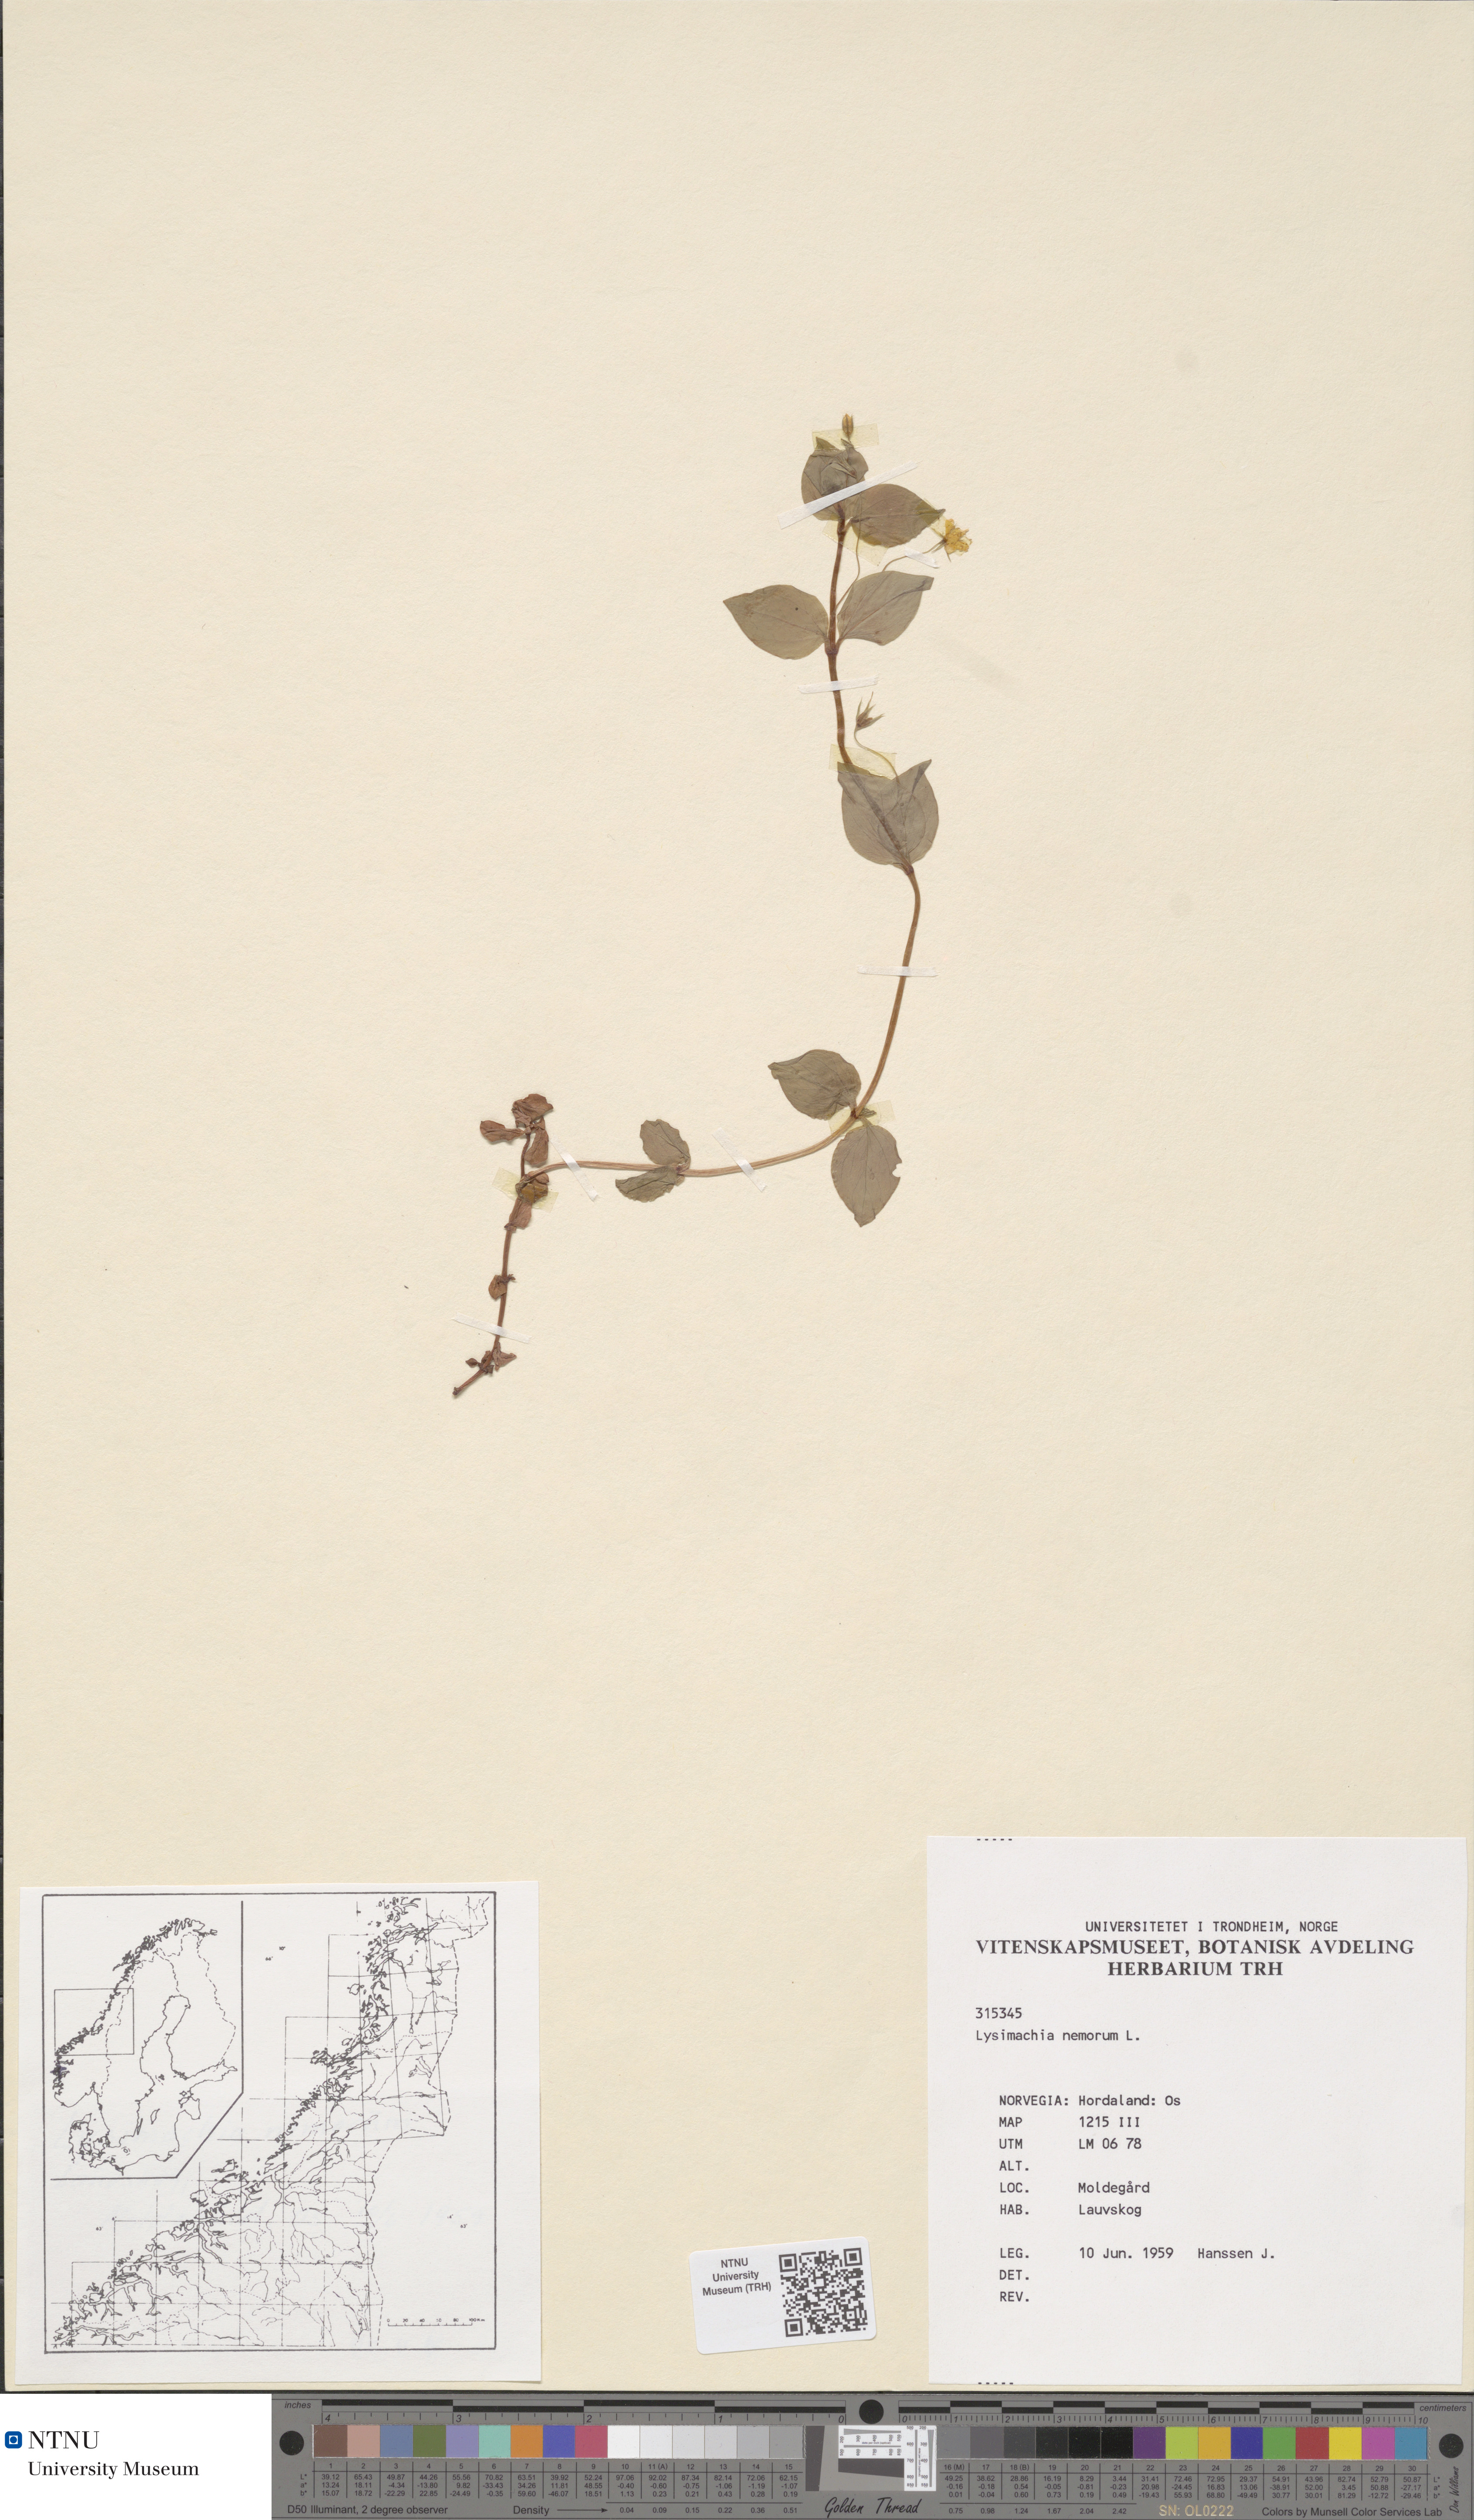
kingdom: Plantae
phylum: Tracheophyta
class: Magnoliopsida
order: Ericales
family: Primulaceae
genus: Lysimachia
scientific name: Lysimachia nemorum
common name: Yellow pimpernel
